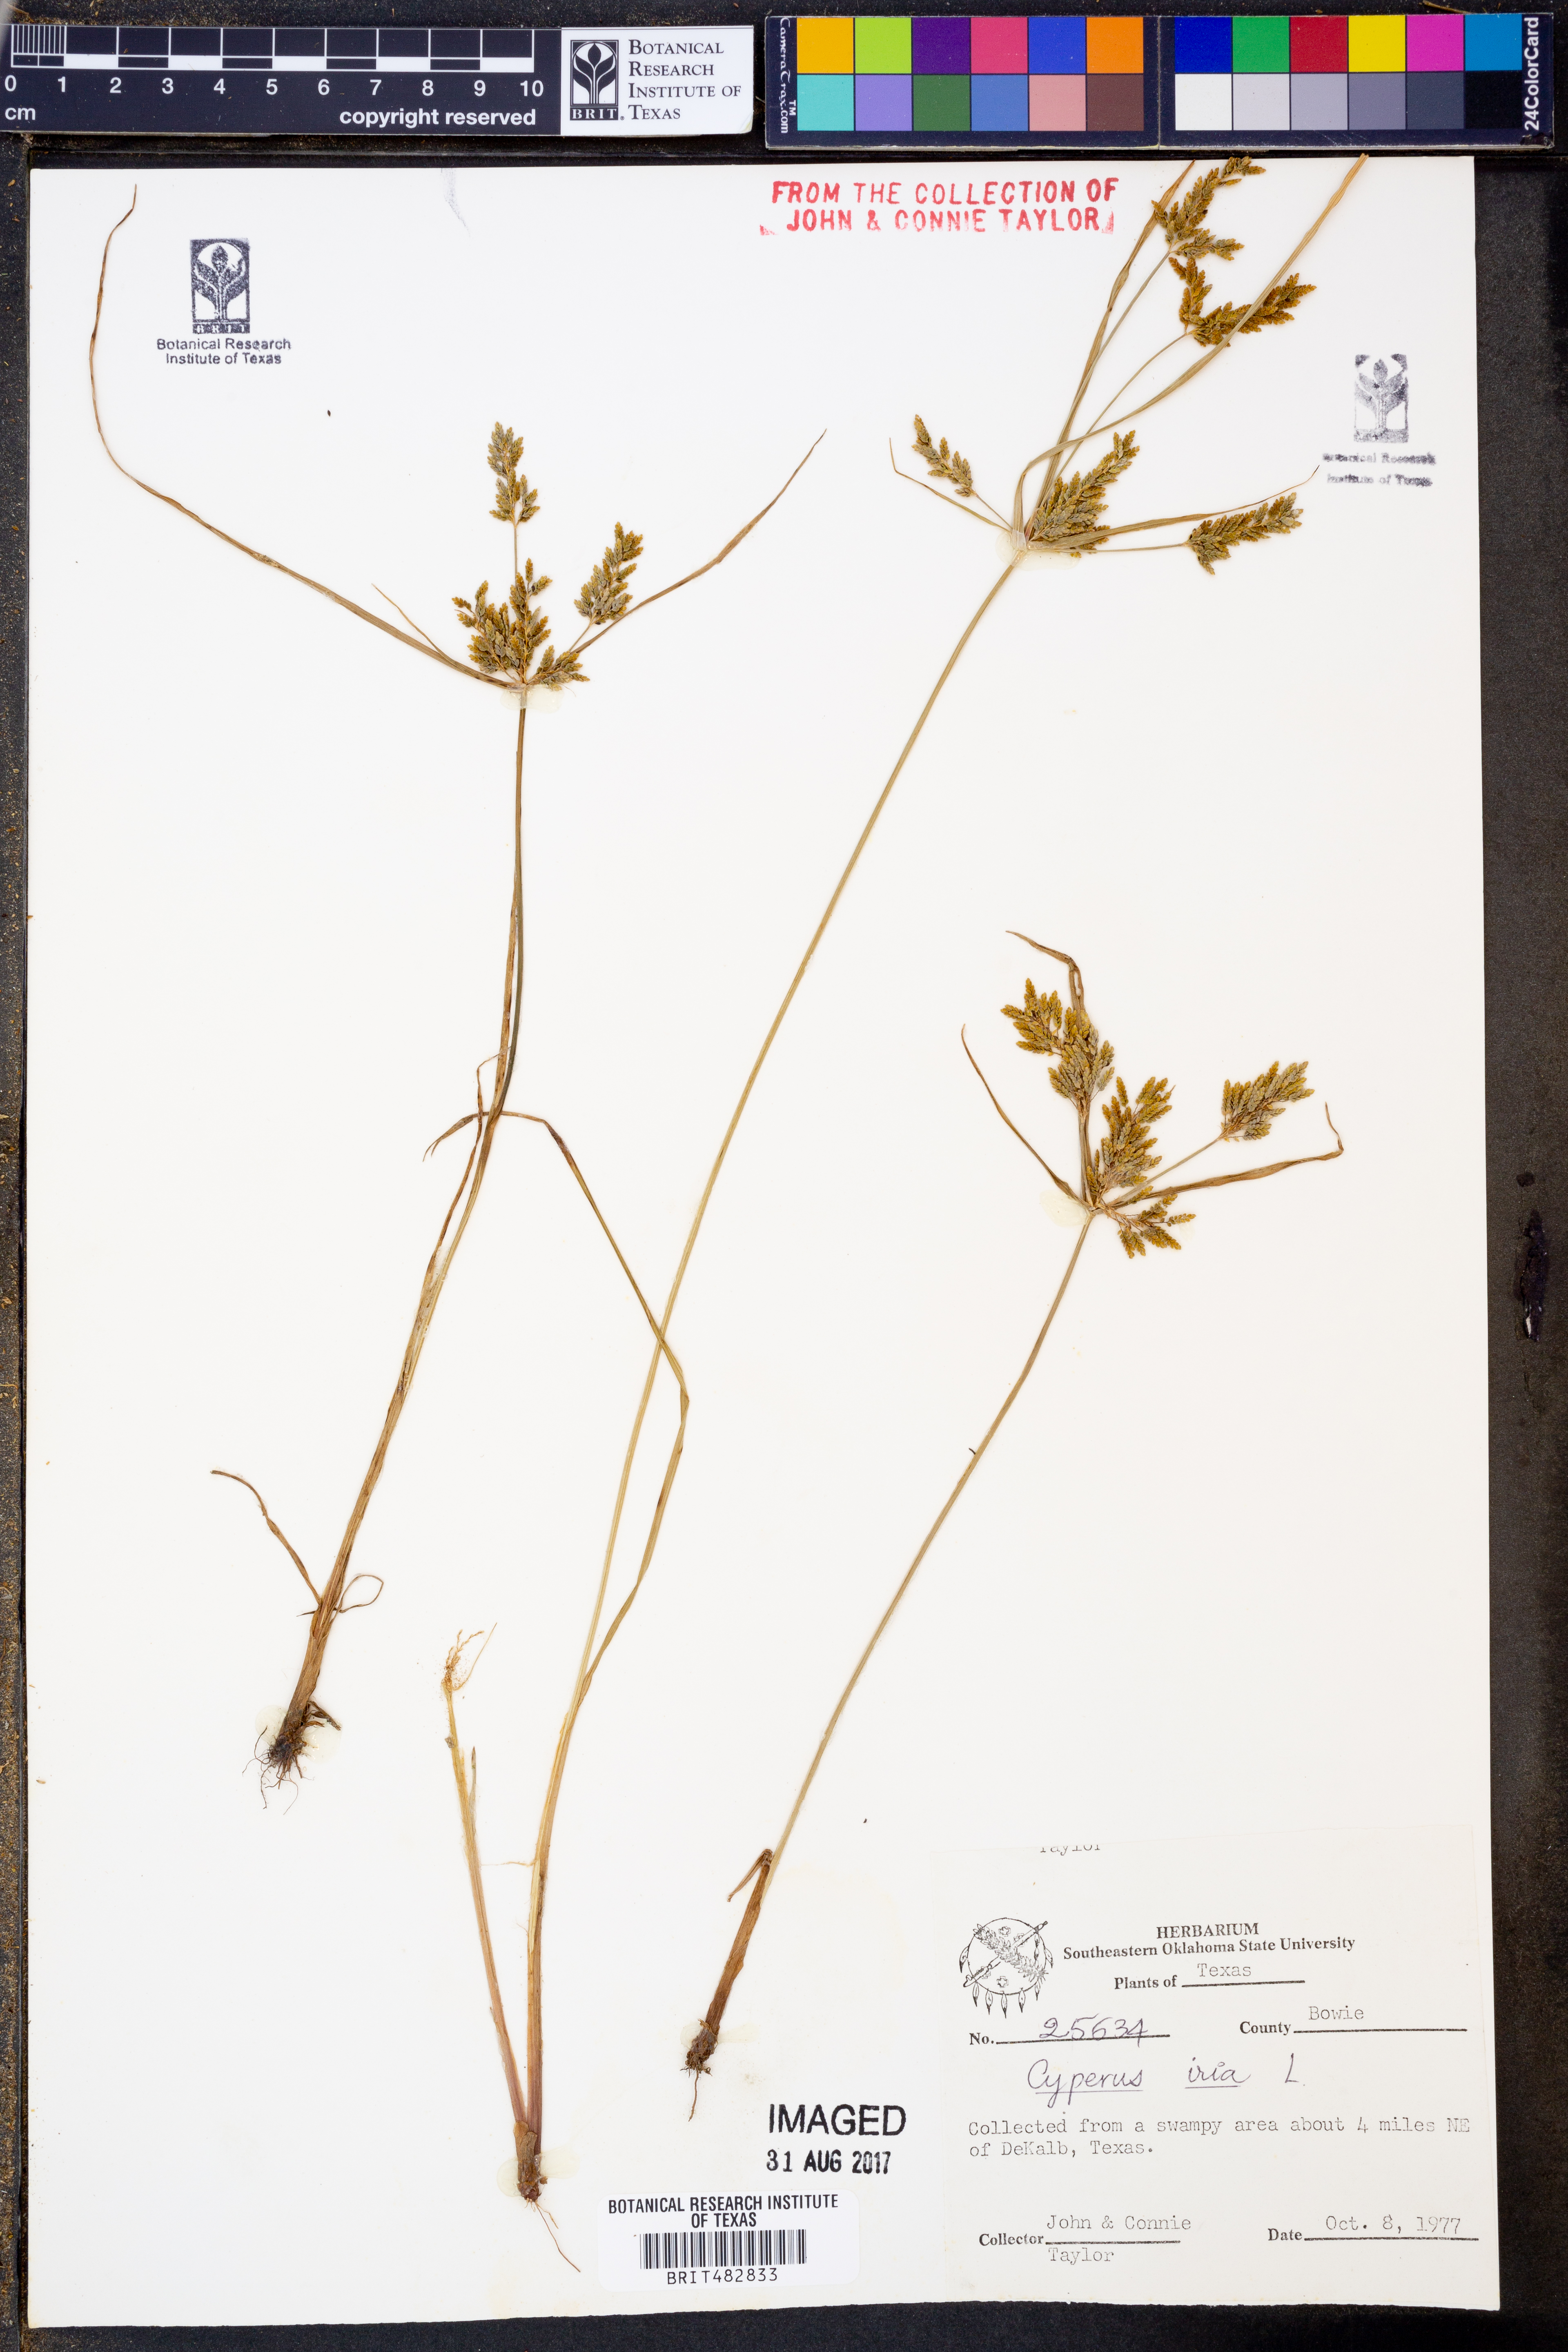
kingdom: Plantae
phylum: Tracheophyta
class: Liliopsida
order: Poales
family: Cyperaceae
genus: Cyperus
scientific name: Cyperus iria
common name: Ricefield flatsedge
